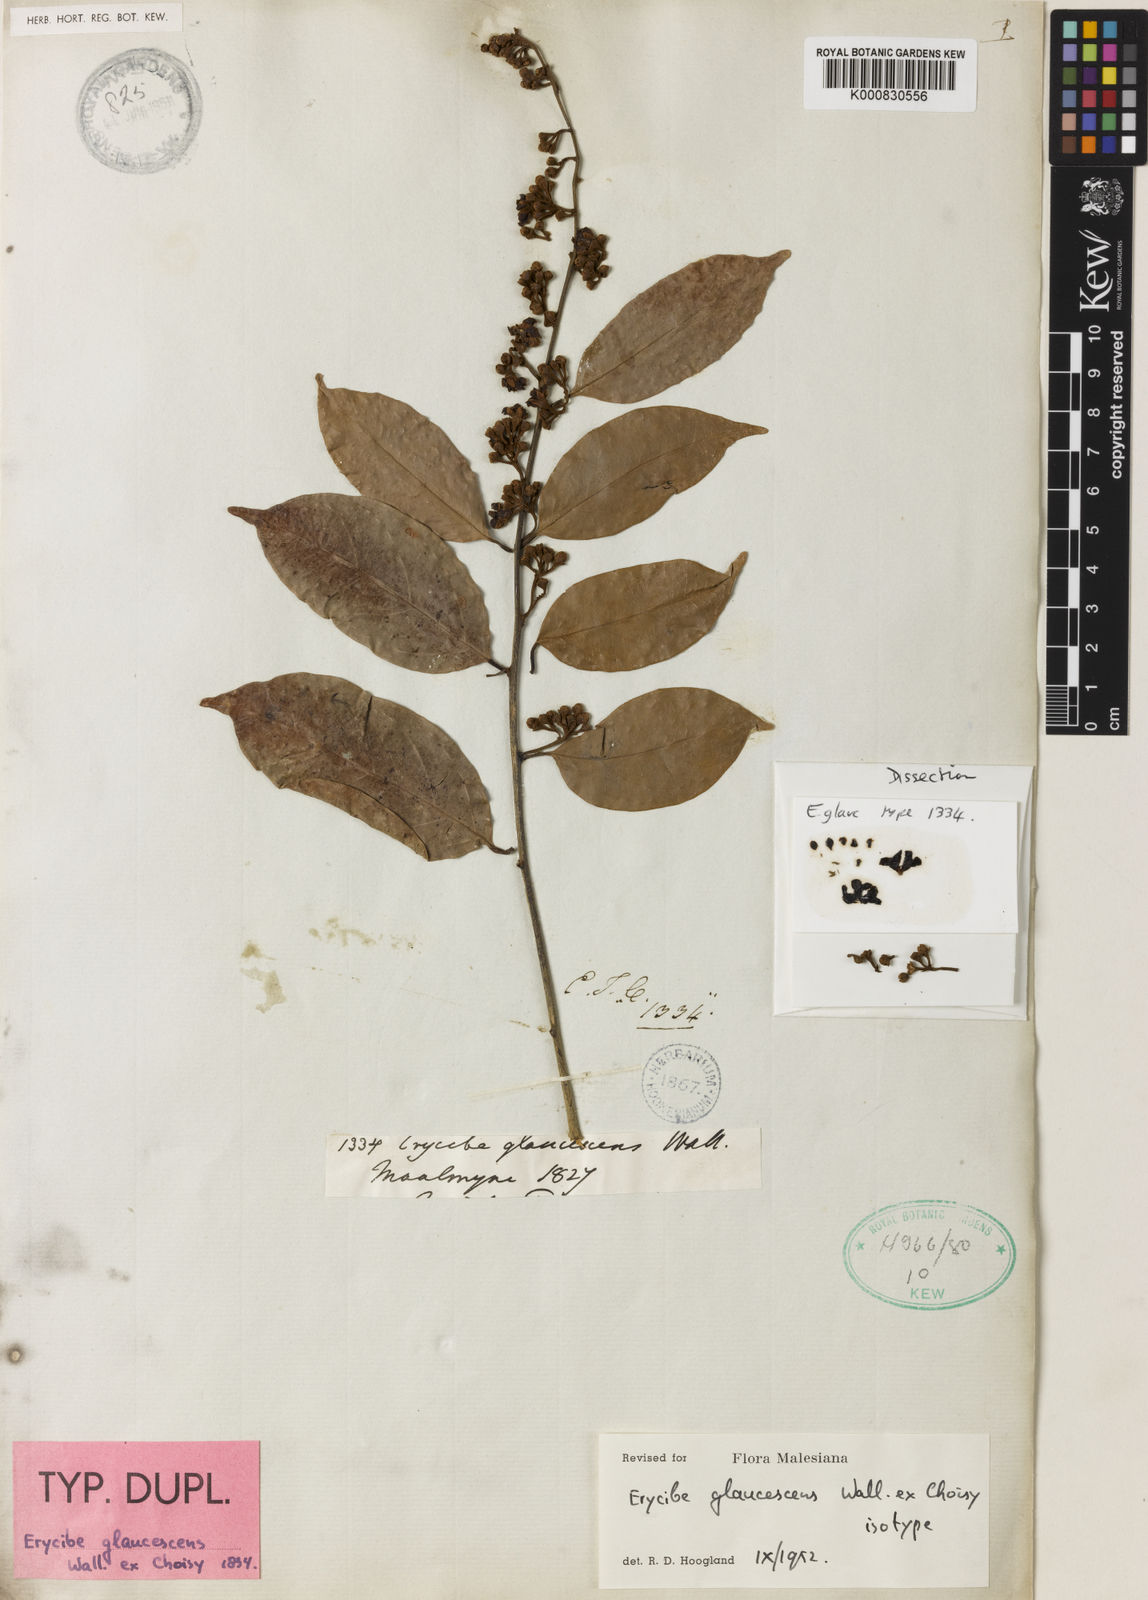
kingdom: Plantae
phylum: Tracheophyta
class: Magnoliopsida
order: Solanales
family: Convolvulaceae
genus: Erycibe
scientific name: Erycibe
